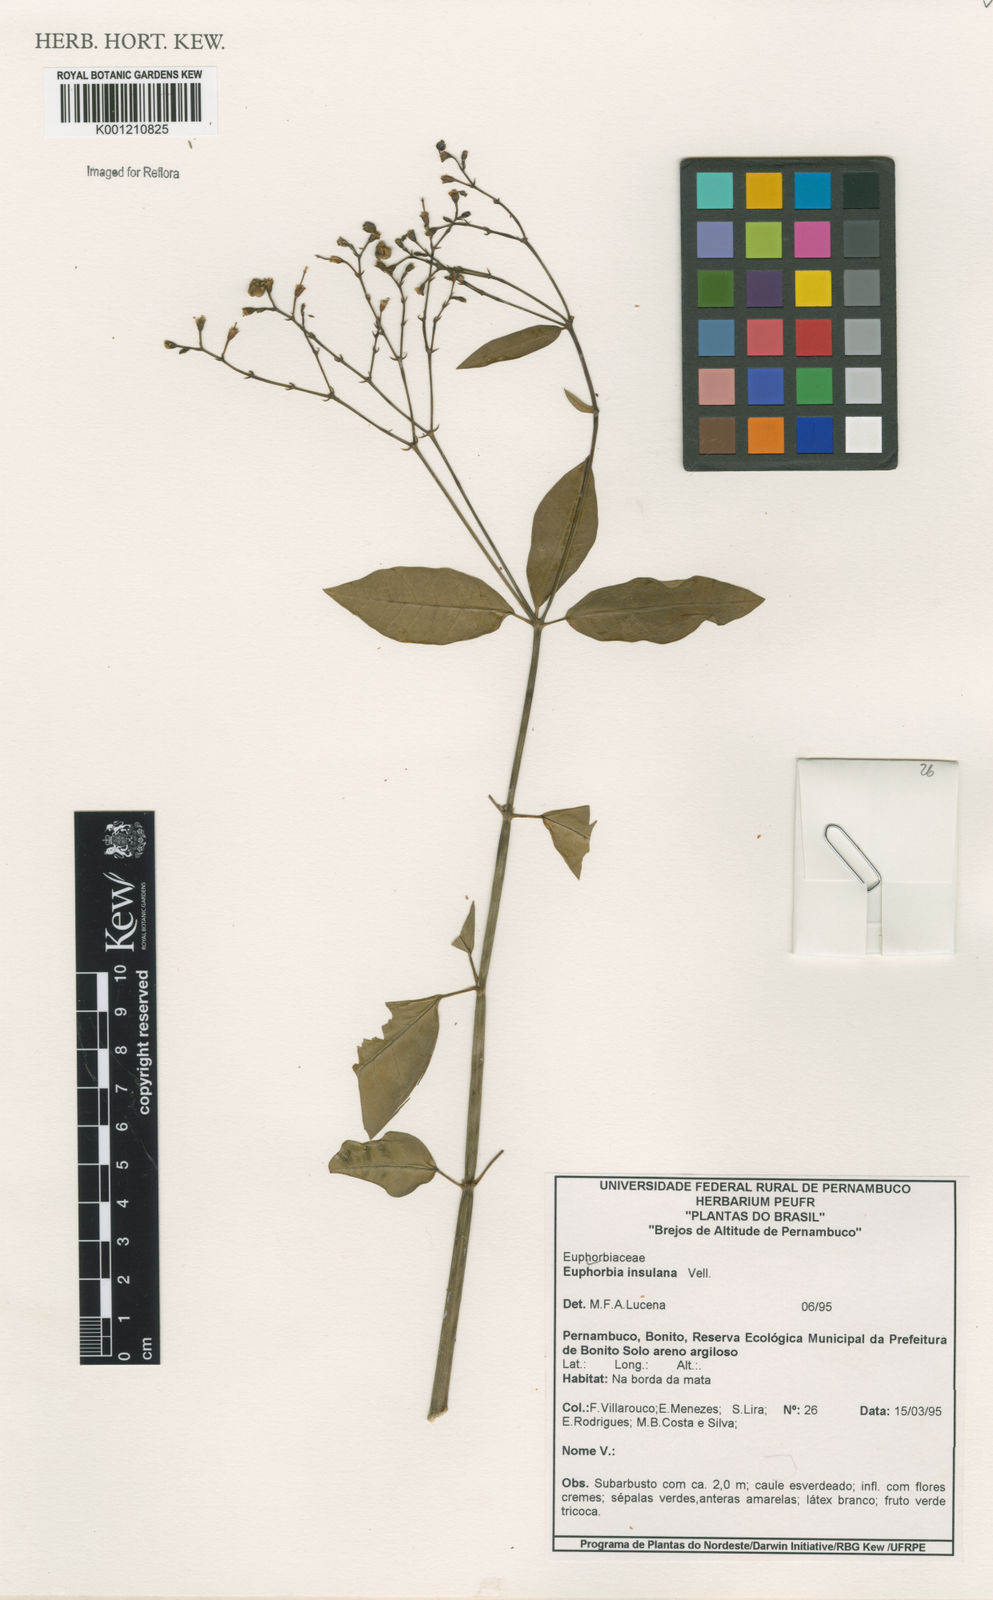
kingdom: Plantae
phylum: Tracheophyta
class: Magnoliopsida
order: Malpighiales
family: Euphorbiaceae
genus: Euphorbia
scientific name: Euphorbia insulana
